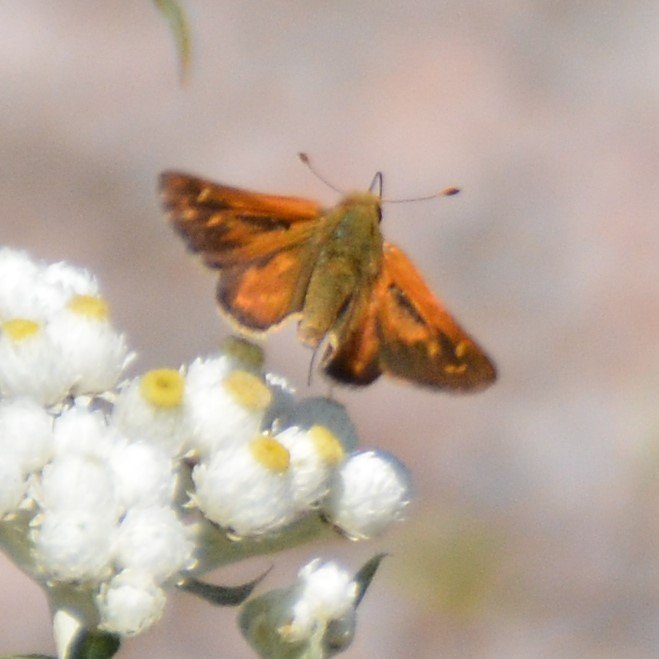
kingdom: Animalia
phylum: Arthropoda
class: Insecta
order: Lepidoptera
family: Hesperiidae
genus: Hesperia
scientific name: Hesperia comma
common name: Common Branded Skipper
